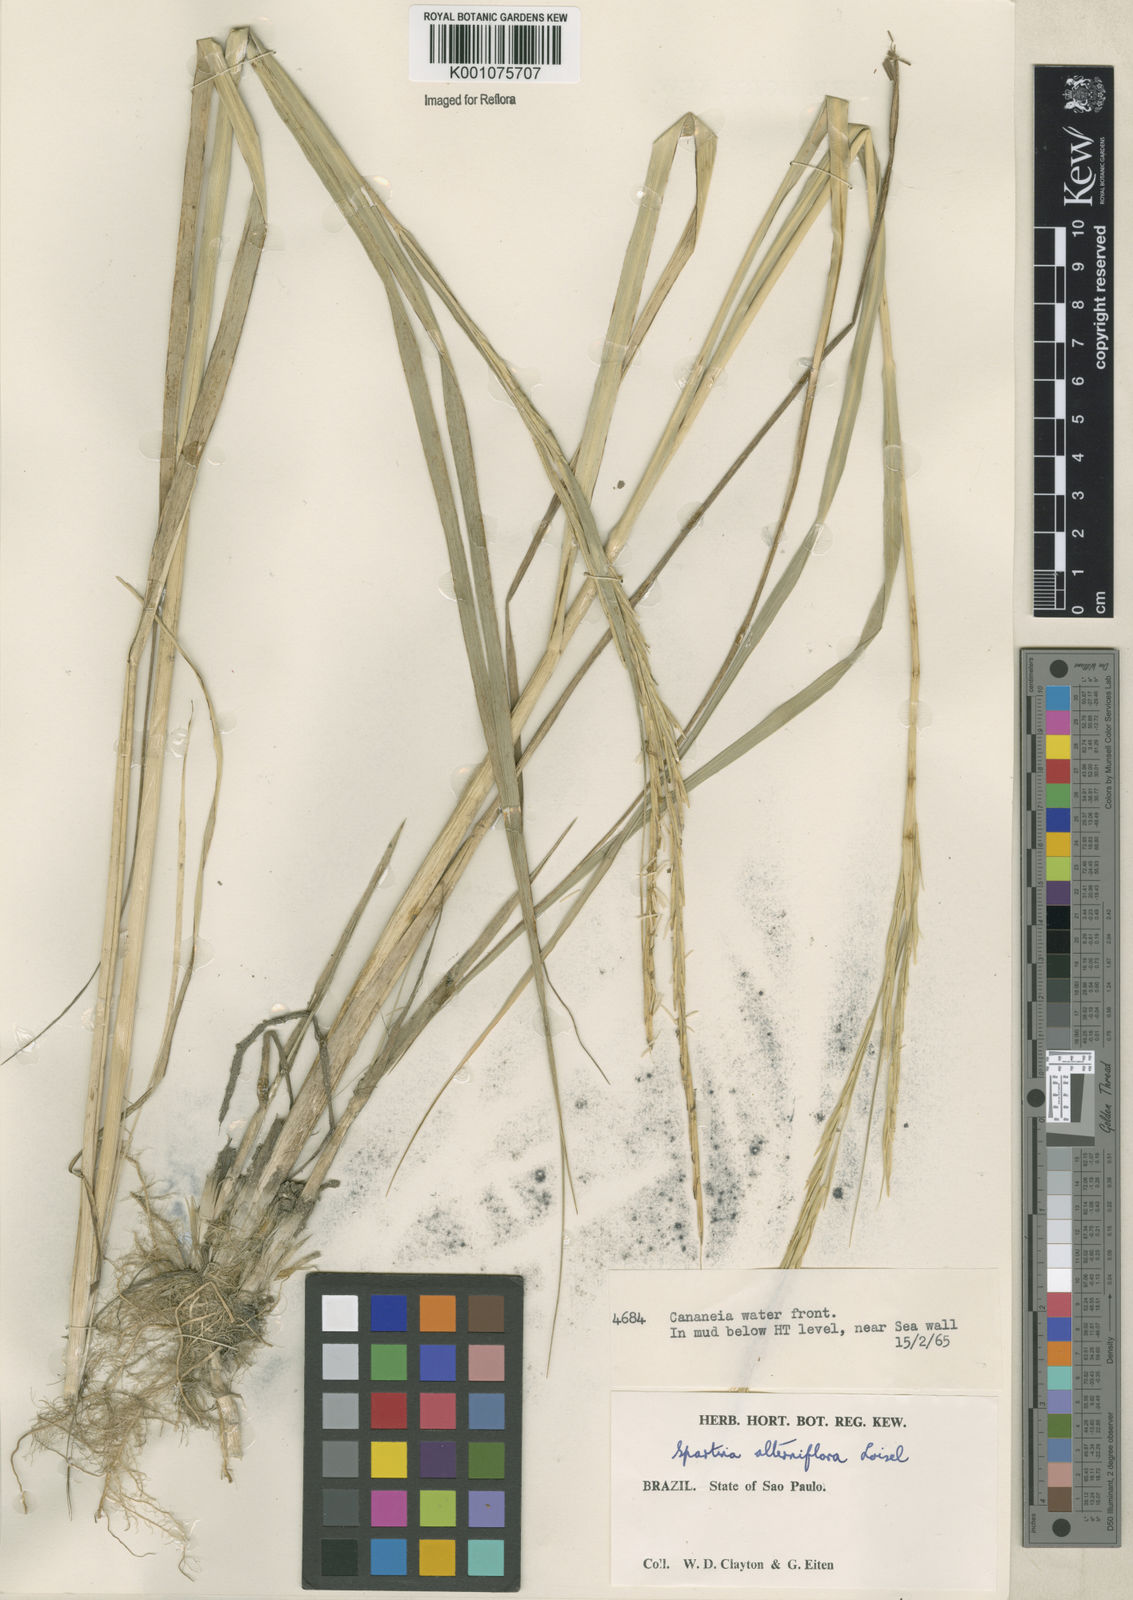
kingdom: Animalia
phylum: Mollusca
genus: Spartina
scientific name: Spartina
